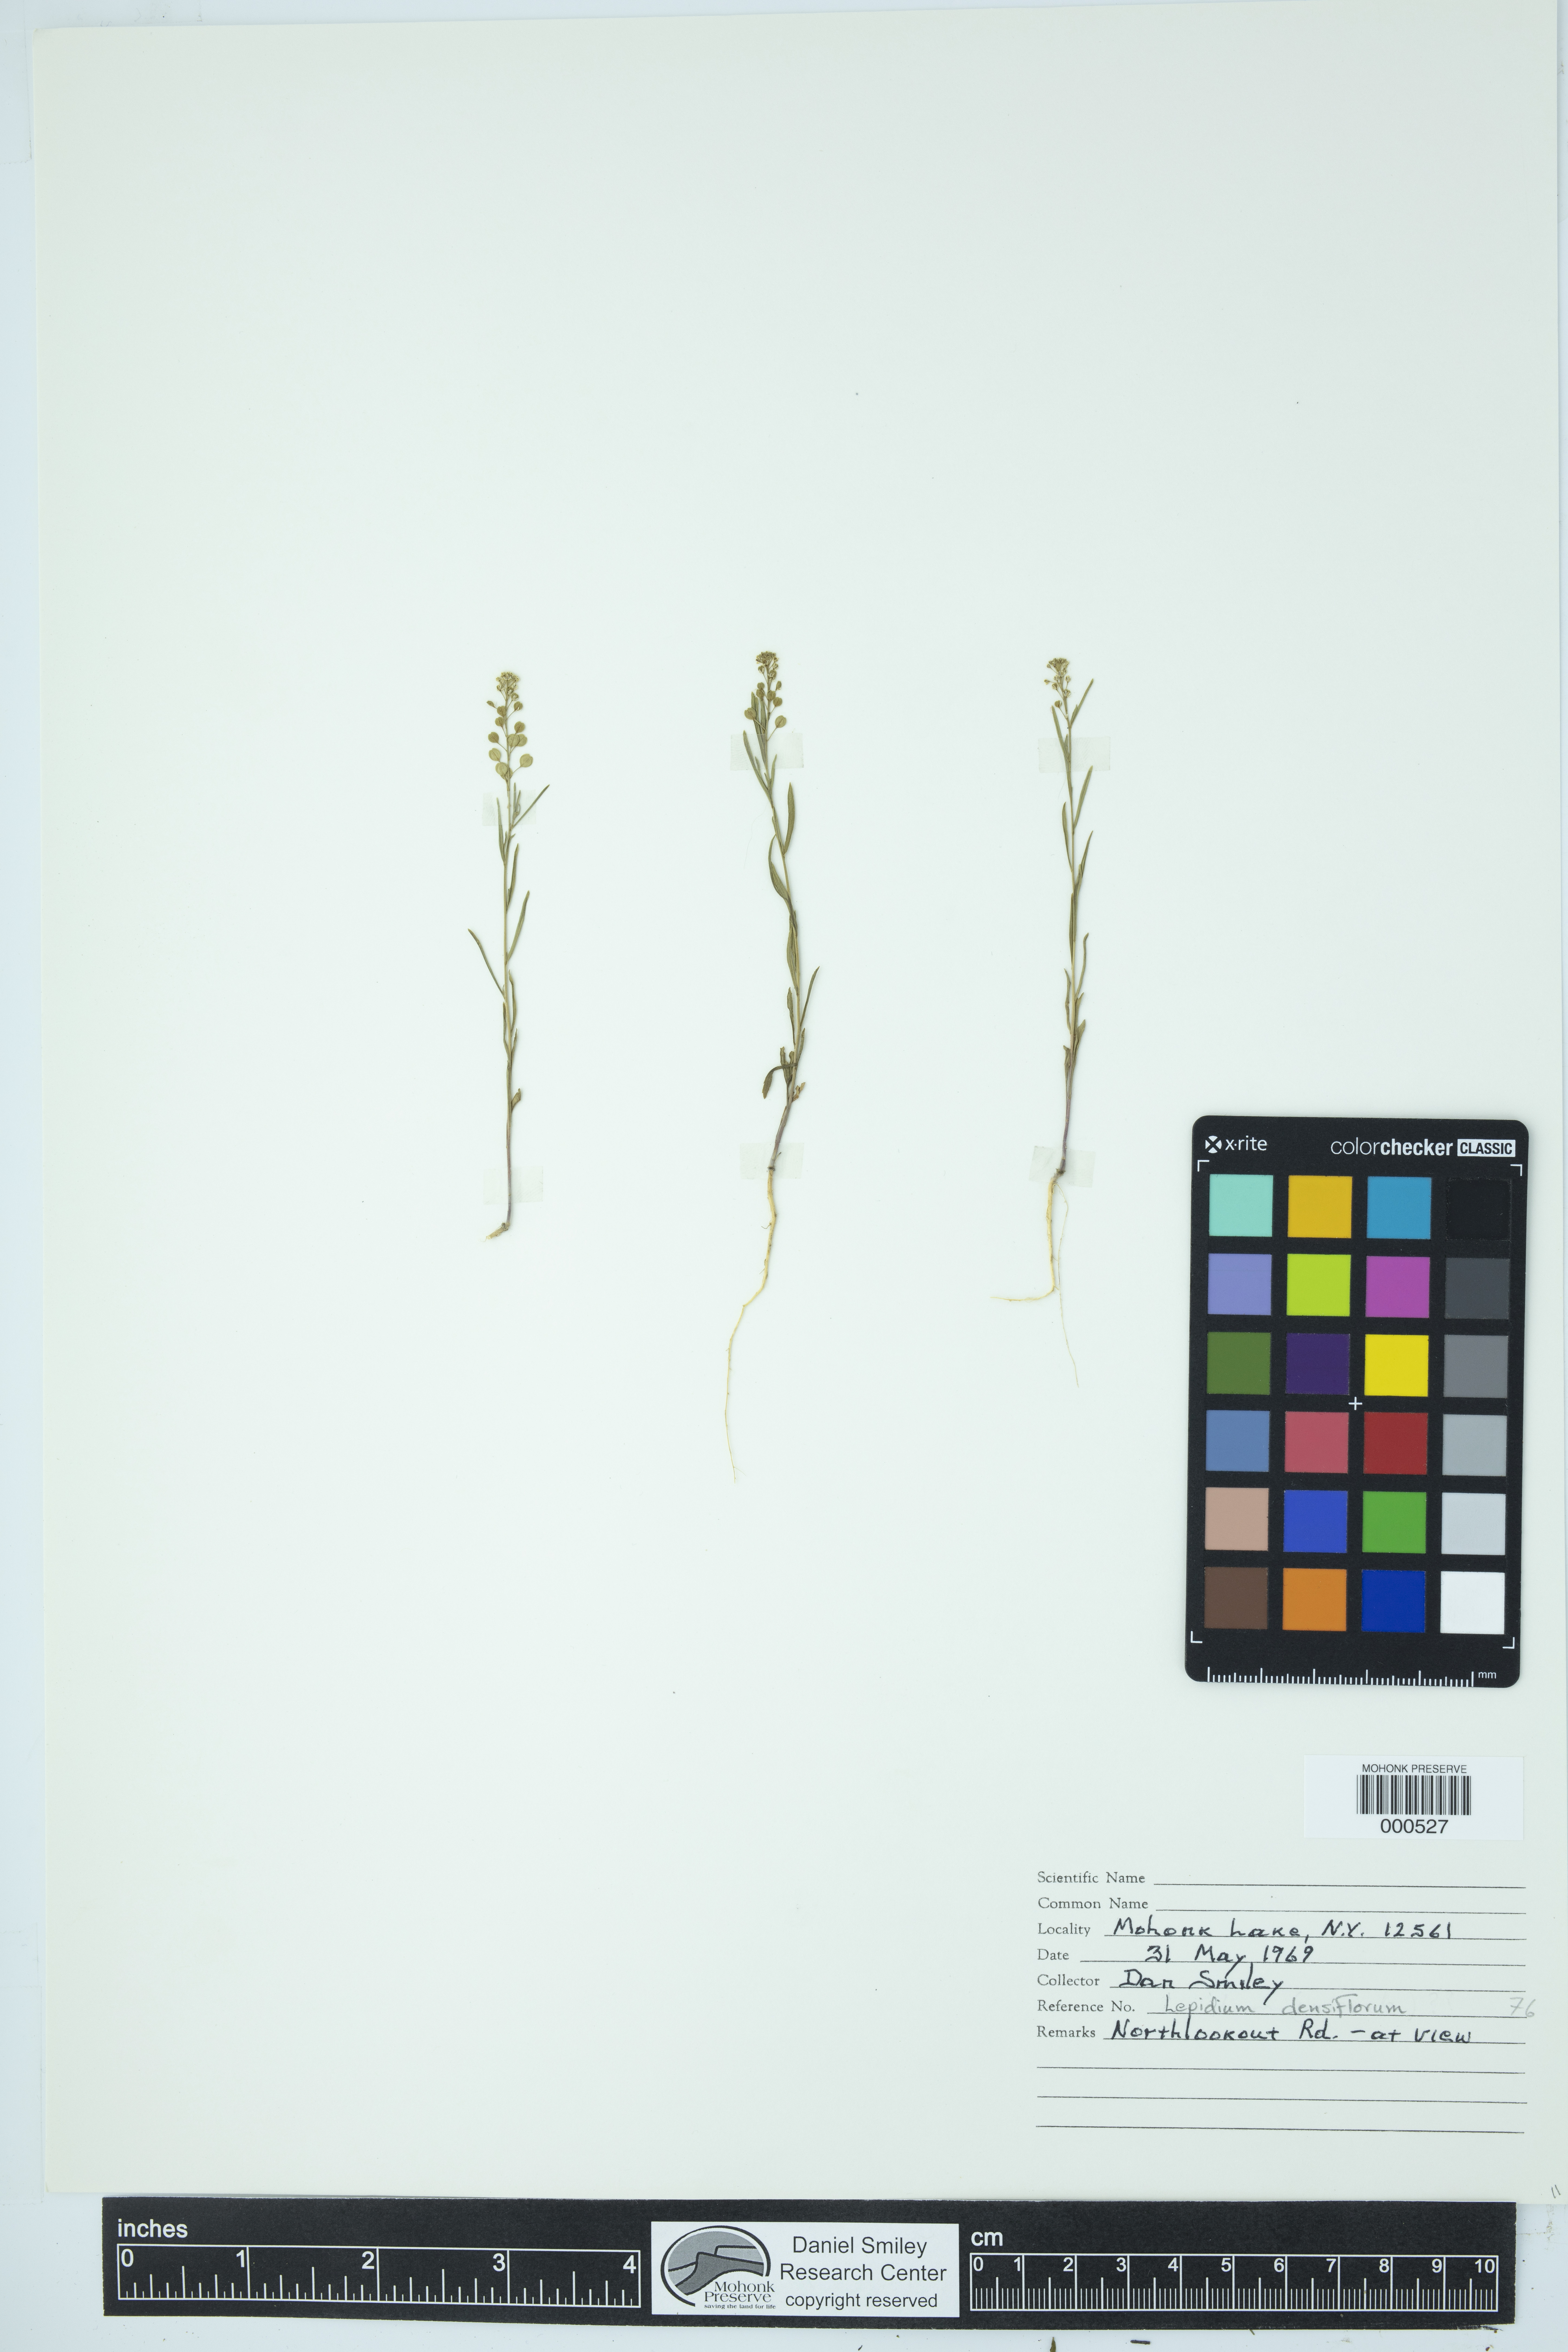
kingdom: Plantae
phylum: Tracheophyta
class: Magnoliopsida
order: Brassicales
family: Brassicaceae
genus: Lepidium
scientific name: Lepidium densiflorum
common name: Miner's pepperwort
